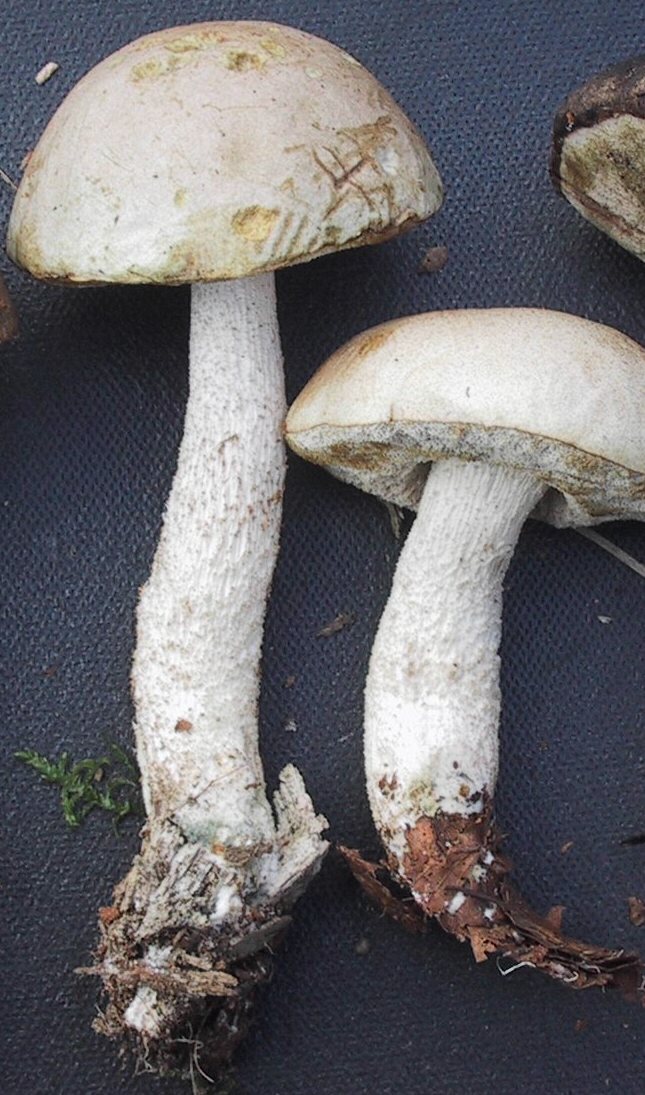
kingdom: Fungi
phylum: Basidiomycota
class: Agaricomycetes
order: Boletales
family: Boletaceae
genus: Leccinum
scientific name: Leccinum scabrum
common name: hvid skælrørhat
